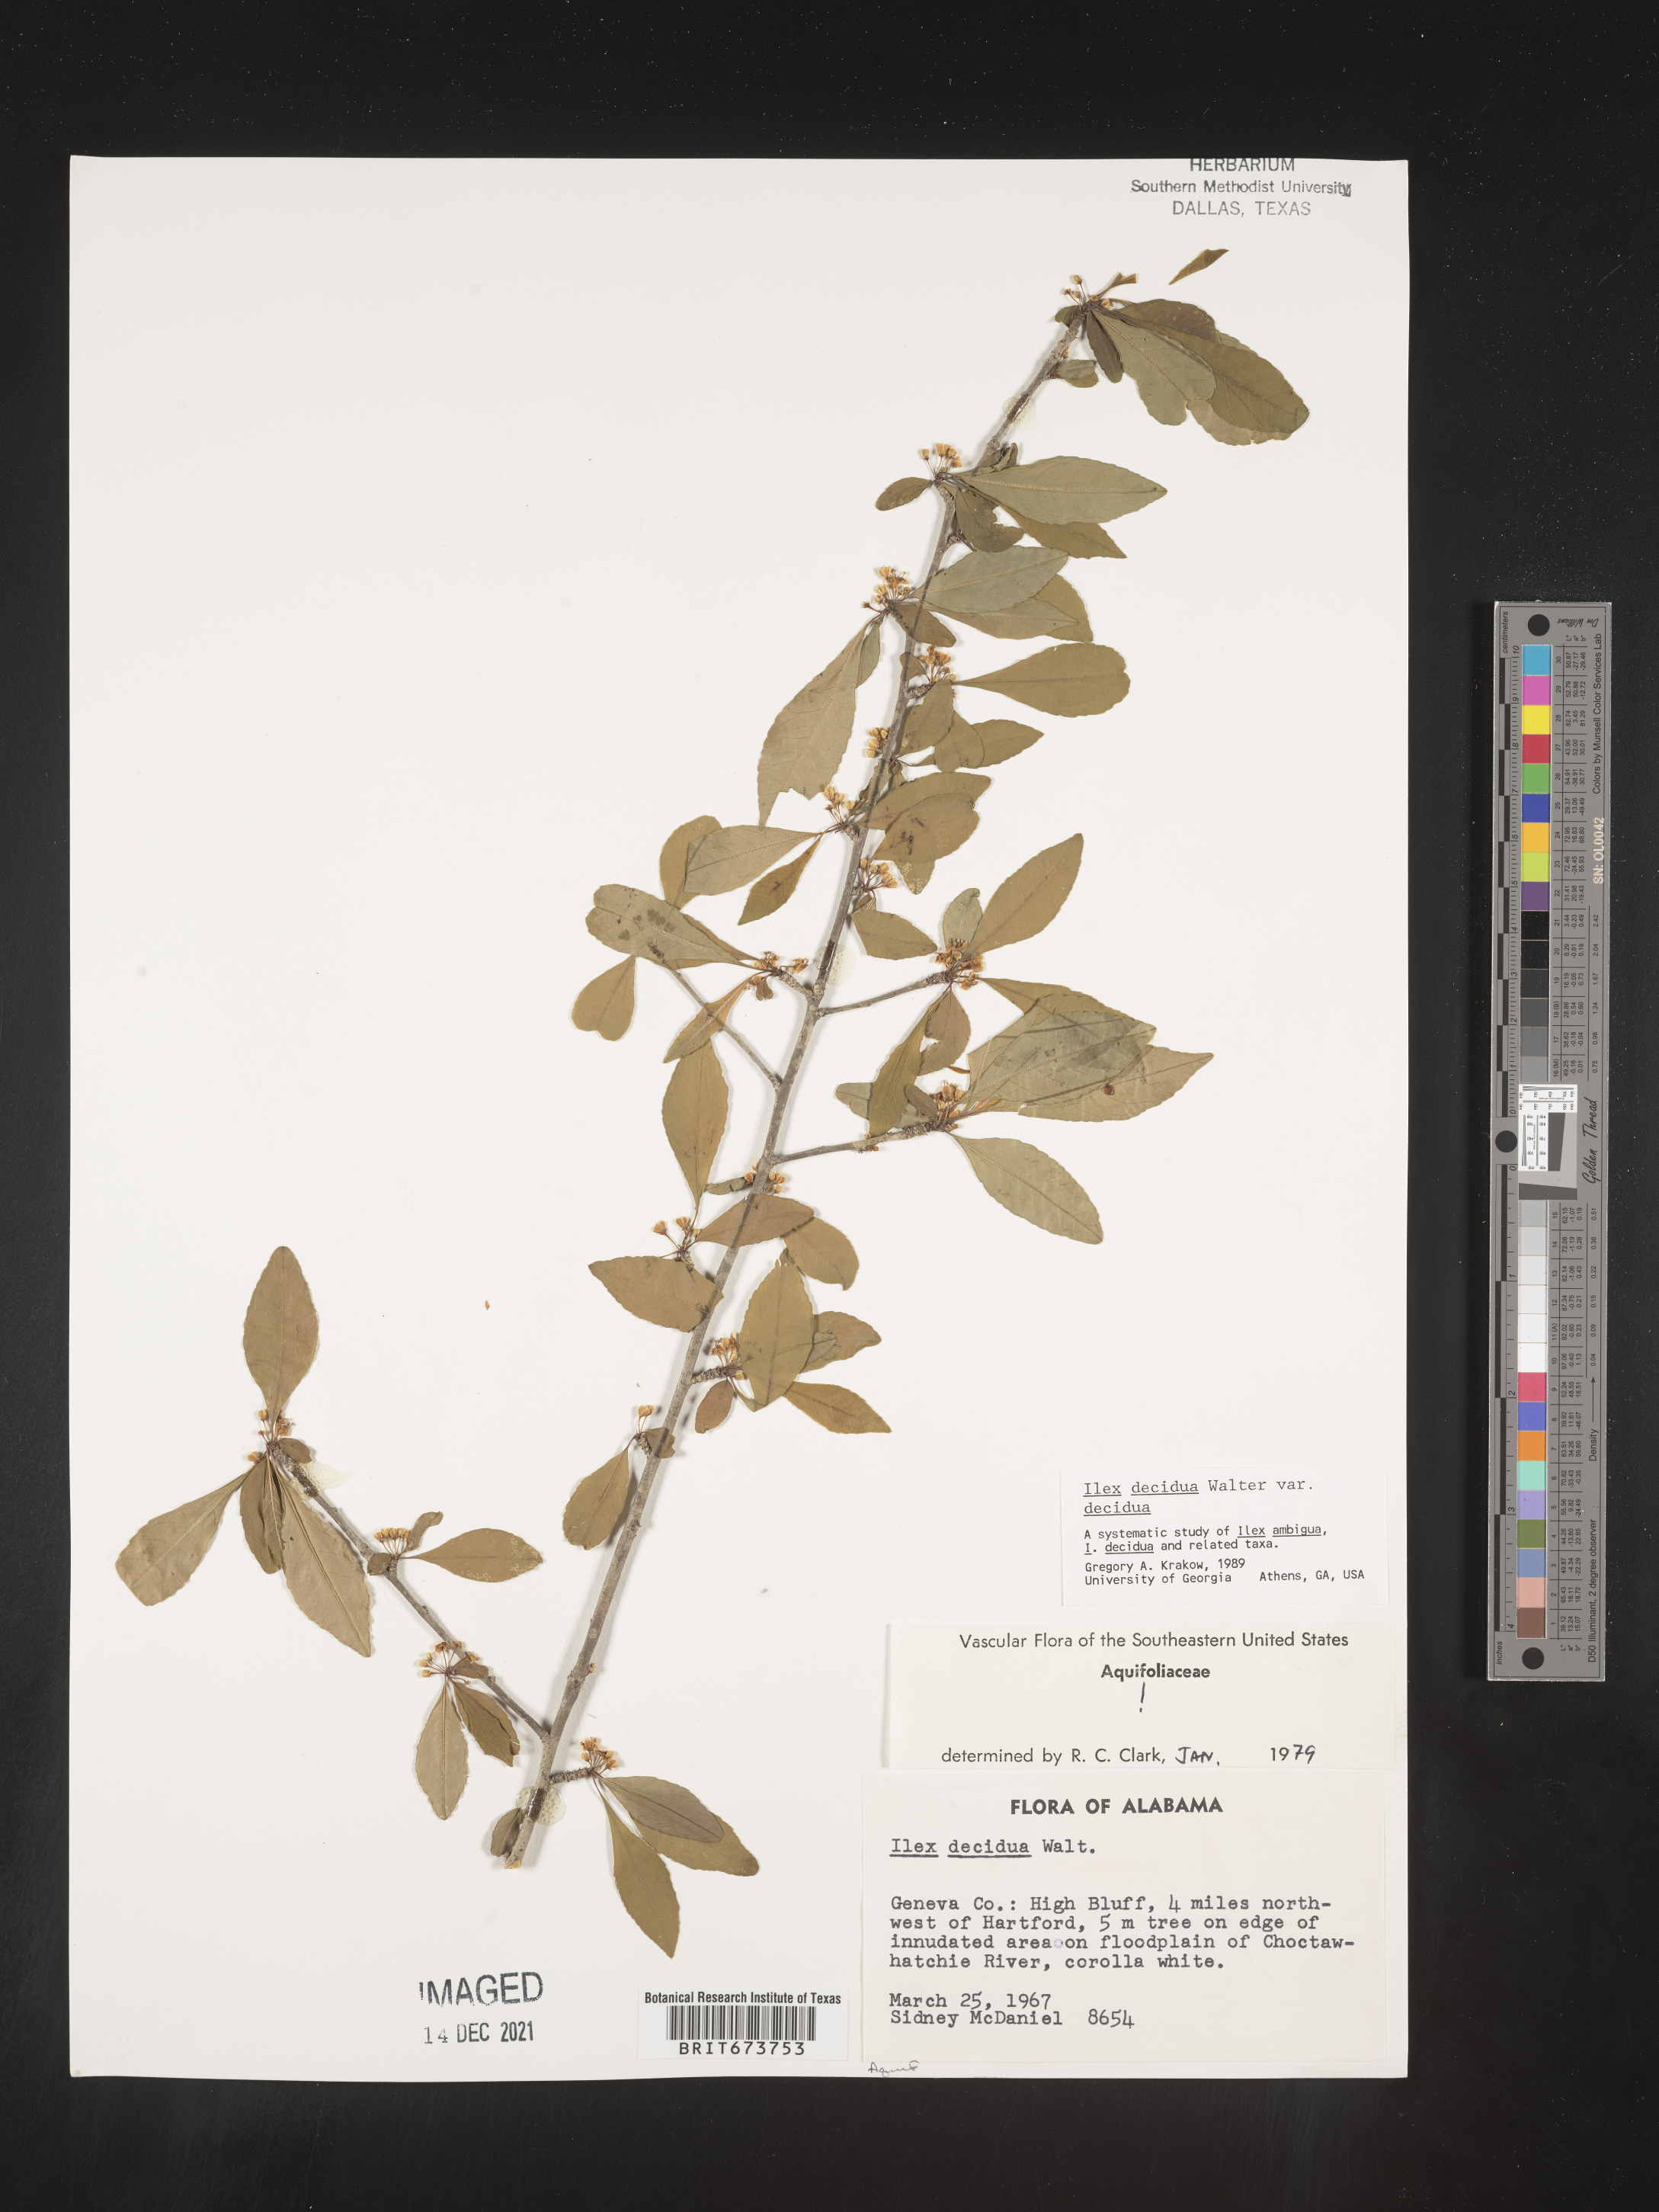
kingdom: Plantae
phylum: Tracheophyta
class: Magnoliopsida
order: Aquifoliales
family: Aquifoliaceae
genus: Ilex
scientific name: Ilex decidua
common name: Possum-haw
